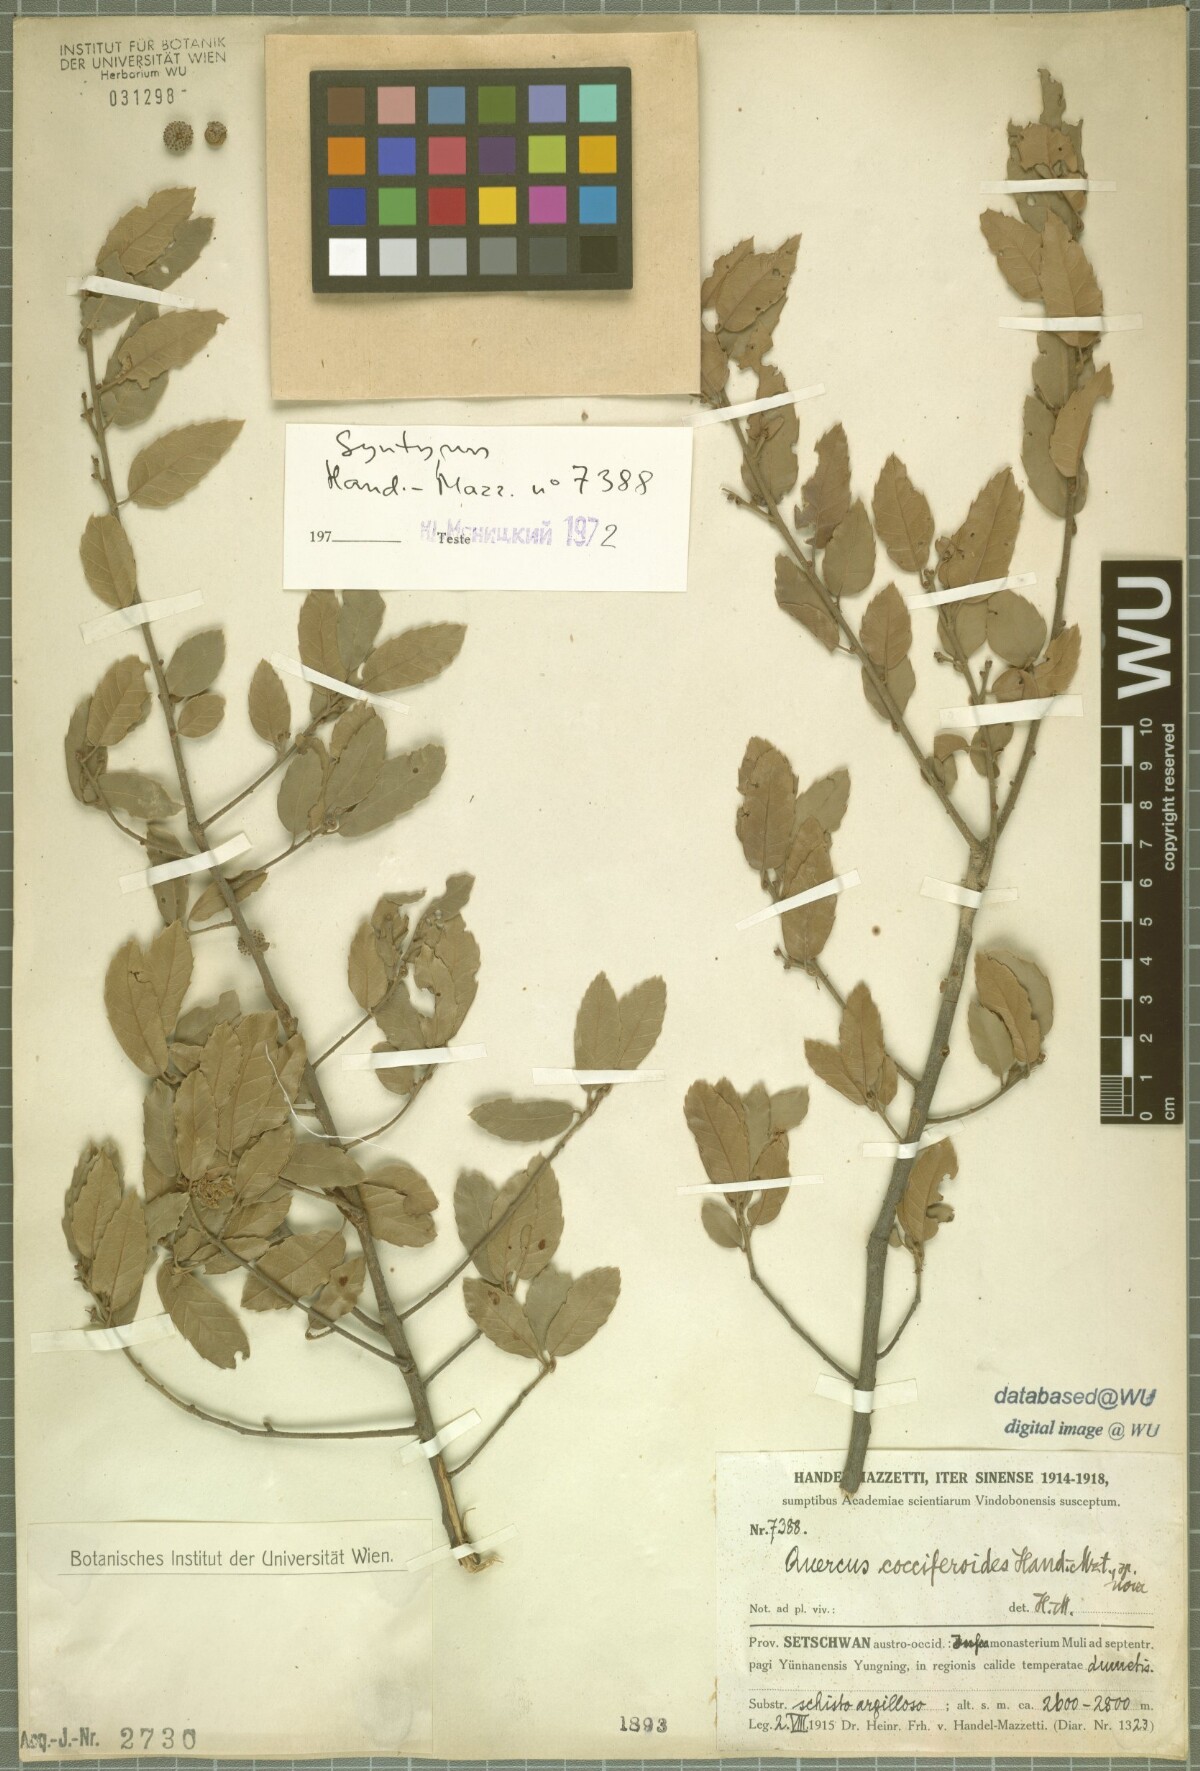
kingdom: Plantae
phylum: Tracheophyta
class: Magnoliopsida
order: Fagales
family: Fagaceae
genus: Quercus
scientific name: Quercus cocciferoides
